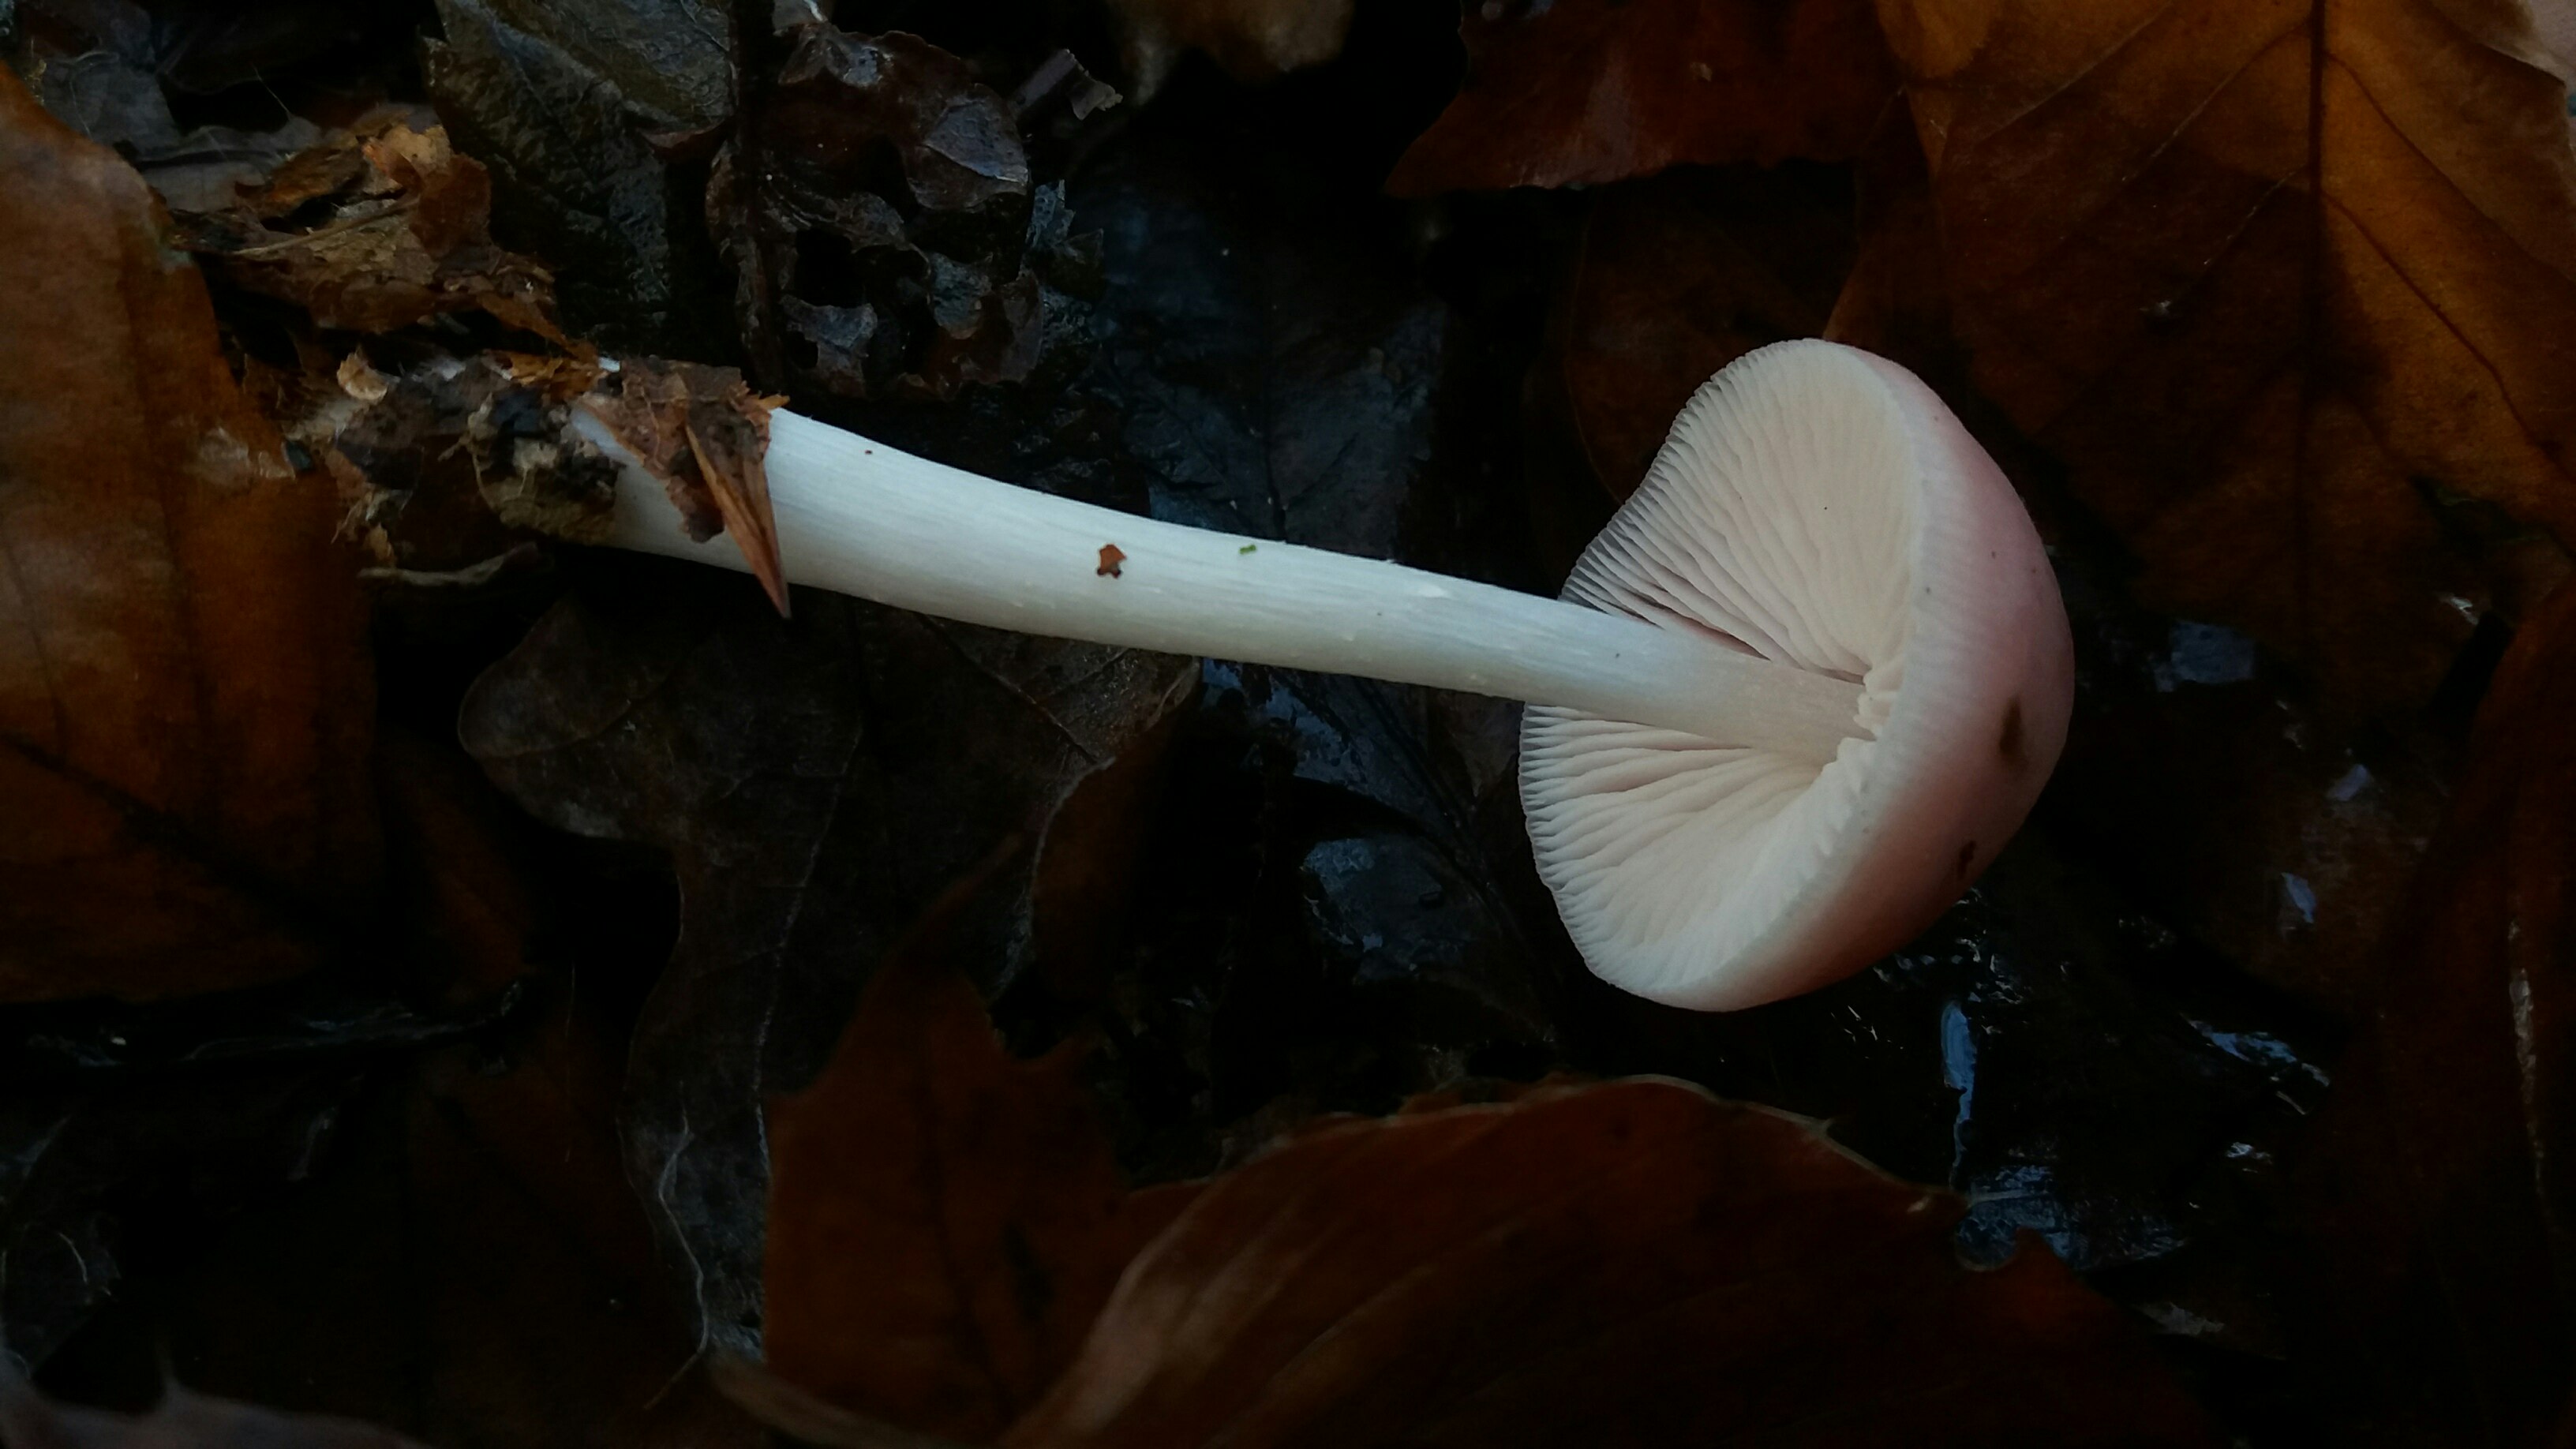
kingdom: Fungi
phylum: Basidiomycota
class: Agaricomycetes
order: Agaricales
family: Mycenaceae
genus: Mycena
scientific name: Mycena rosea
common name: rosa huesvamp
